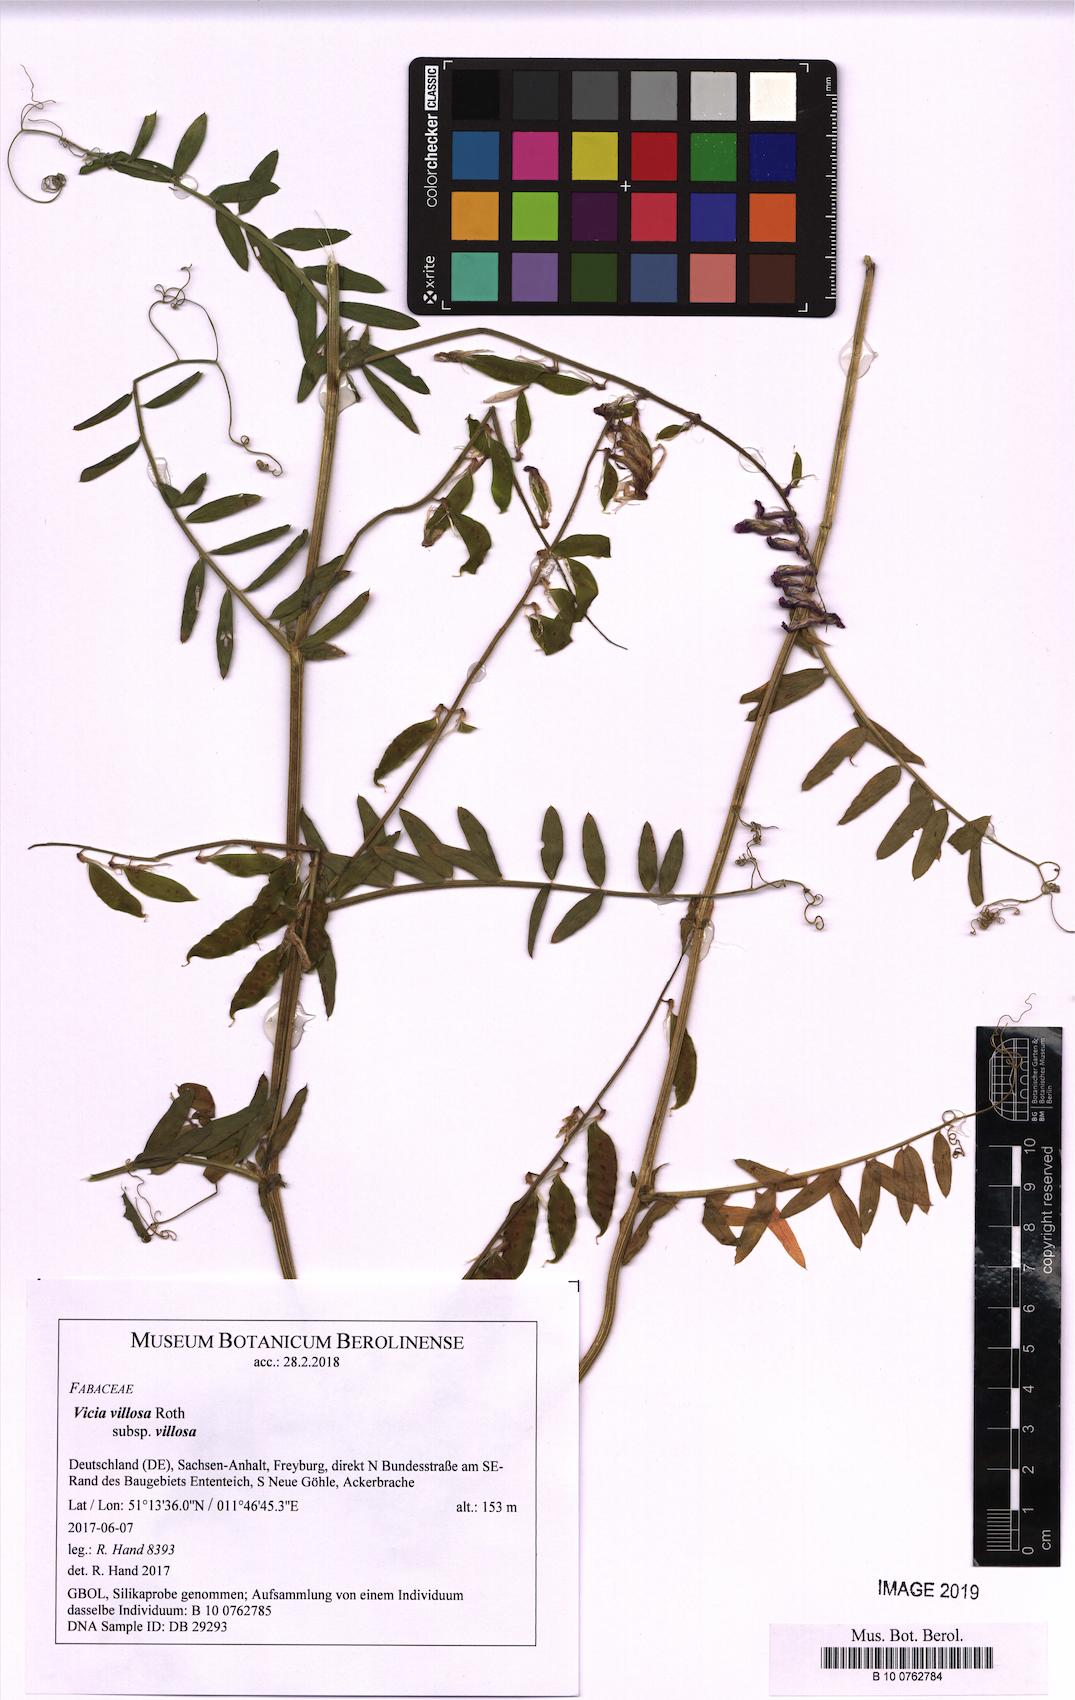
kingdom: Plantae
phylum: Tracheophyta
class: Magnoliopsida
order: Fabales
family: Fabaceae
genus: Vicia
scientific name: Vicia villosa
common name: Fodder vetch
